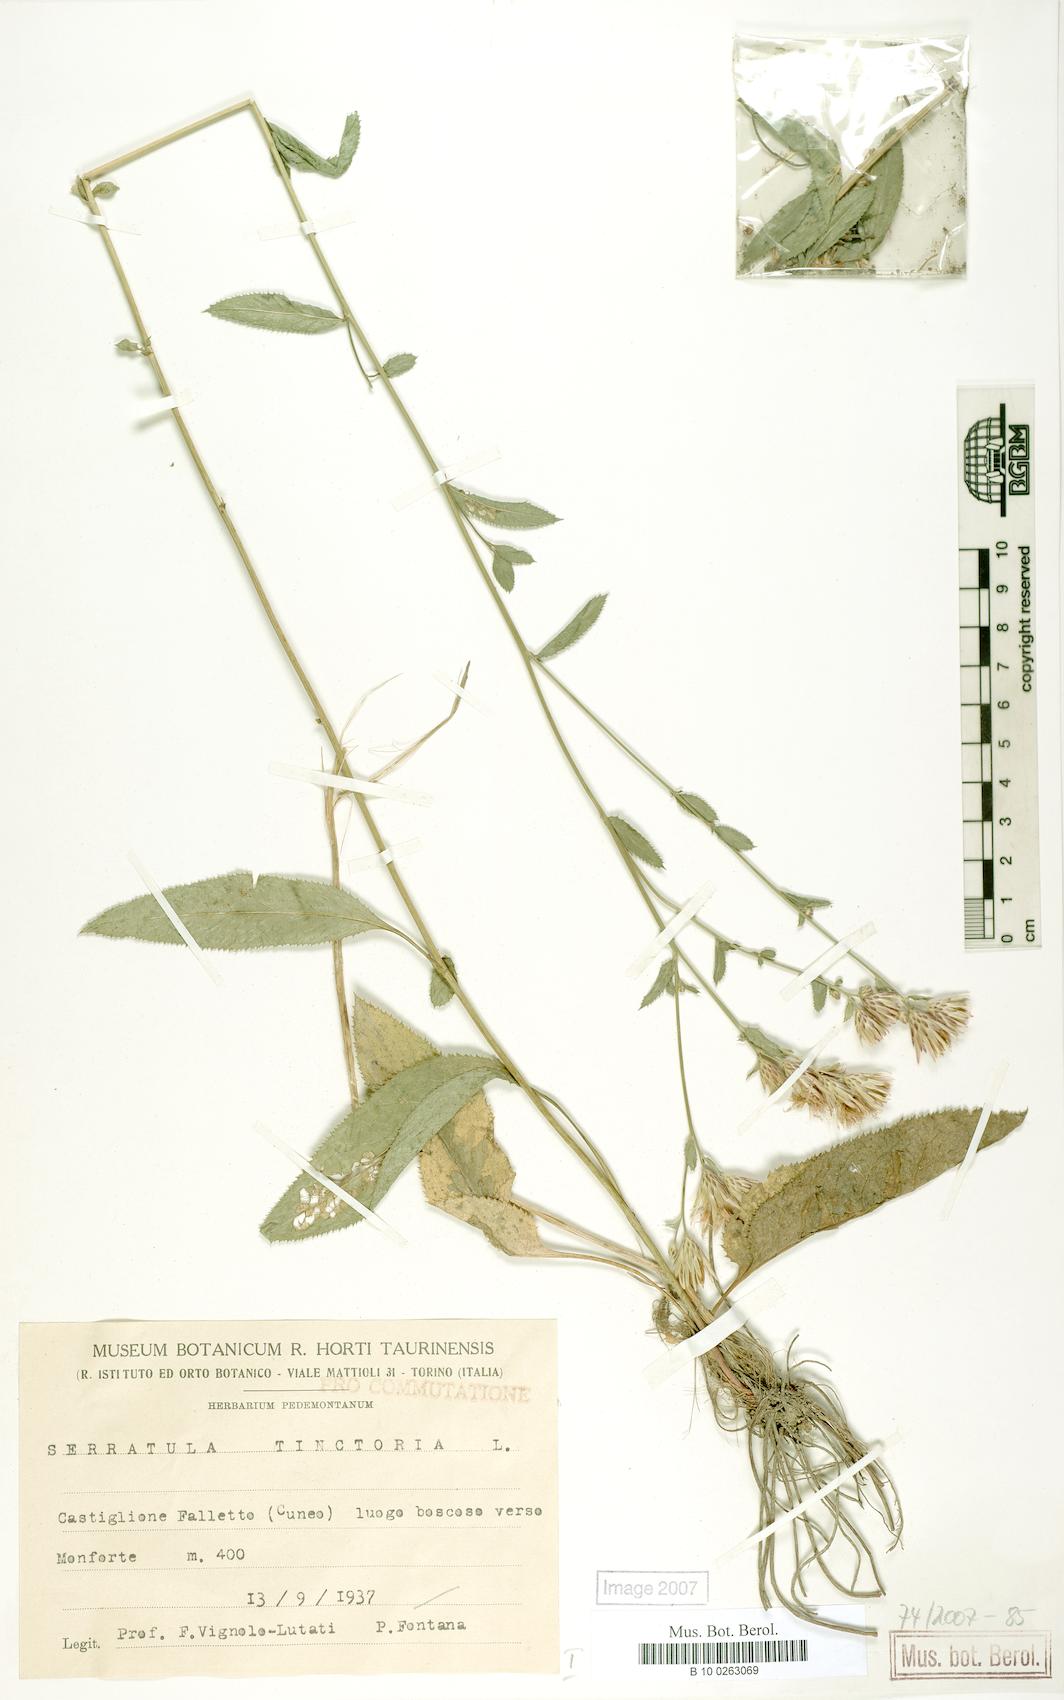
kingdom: Plantae
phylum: Tracheophyta
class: Magnoliopsida
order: Asterales
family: Asteraceae
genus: Serratula
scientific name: Serratula tinctoria
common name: Saw-wort
